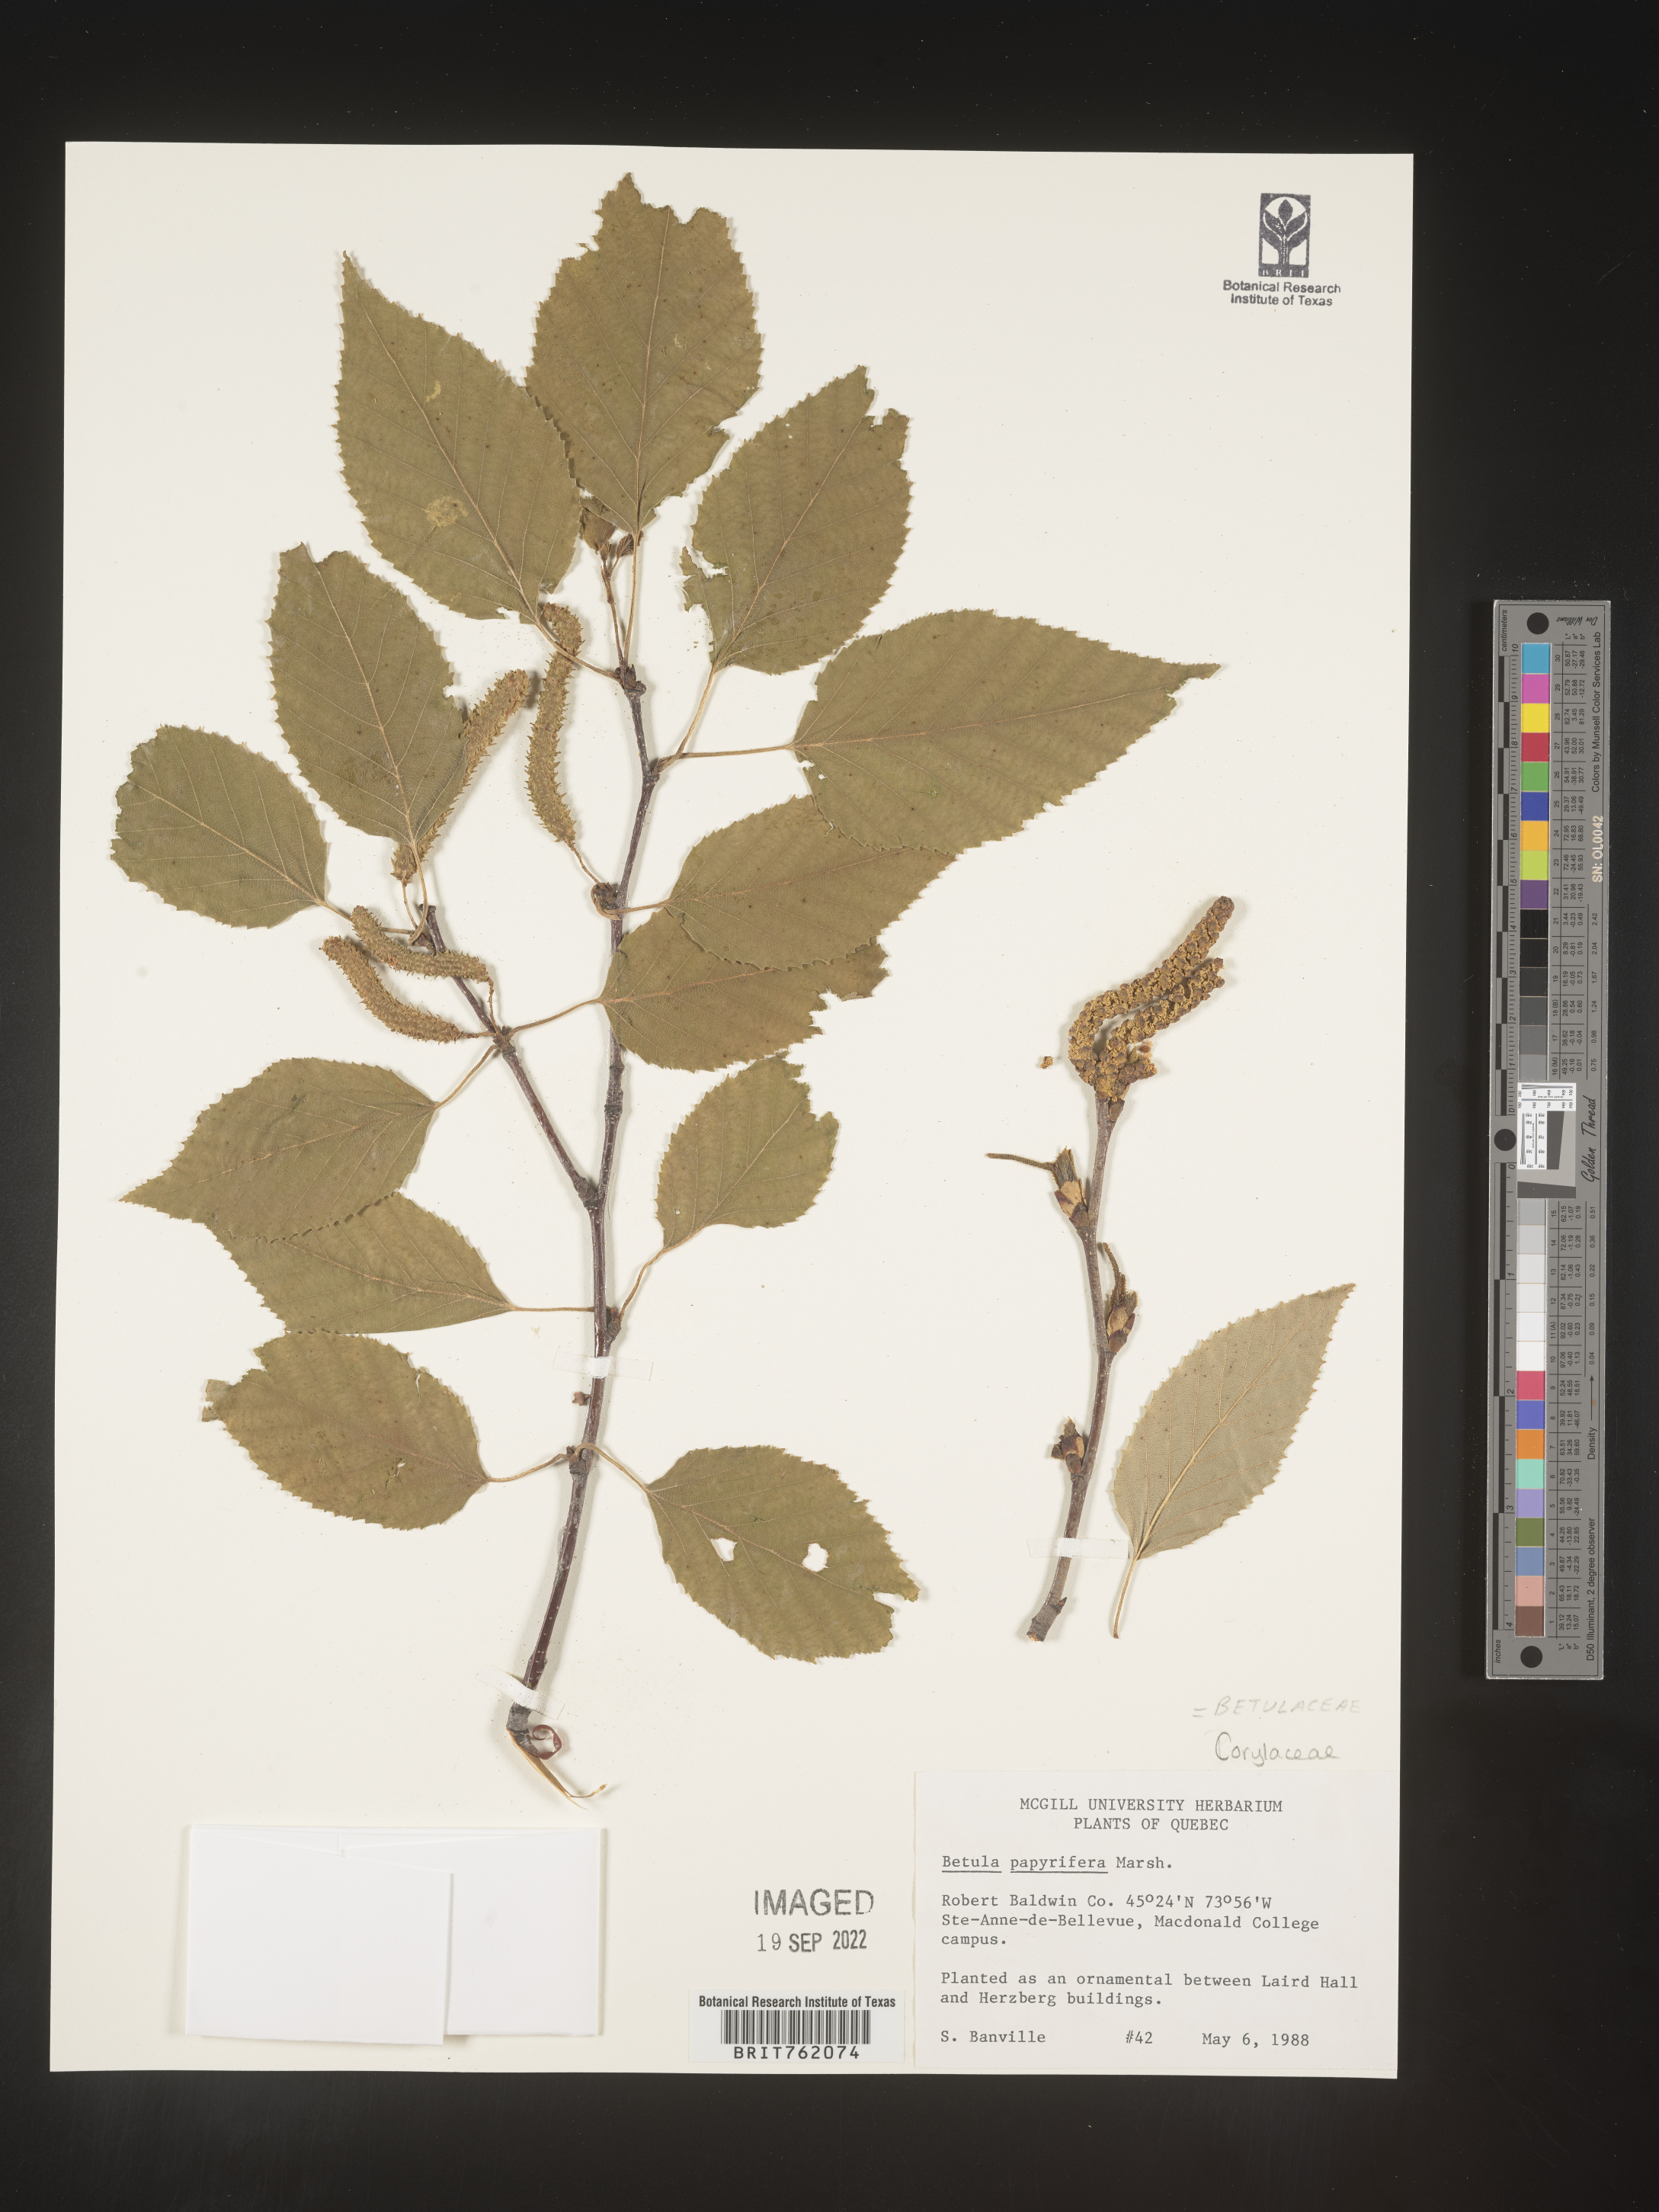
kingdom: Plantae
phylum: Tracheophyta
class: Magnoliopsida
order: Fagales
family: Betulaceae
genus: Betula
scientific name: Betula papyrifera
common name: Paper birch
